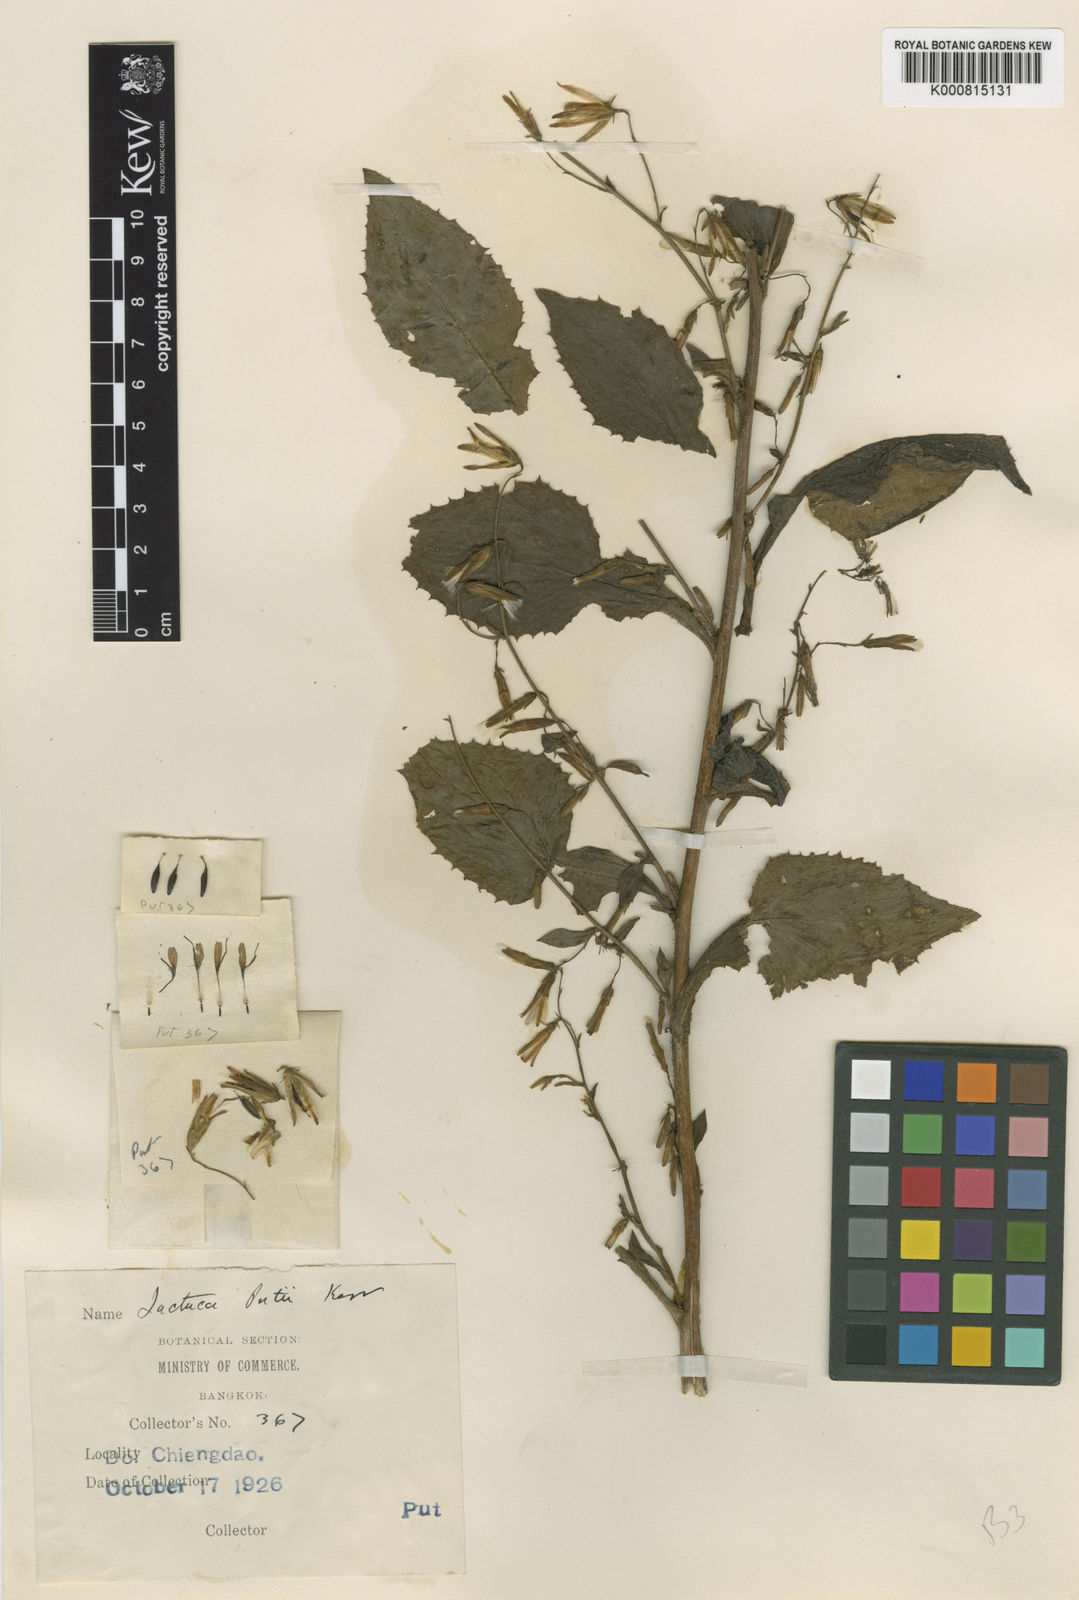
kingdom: Plantae
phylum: Tracheophyta
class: Magnoliopsida
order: Asterales
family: Asteraceae
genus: Lactuca
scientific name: Lactuca putii
